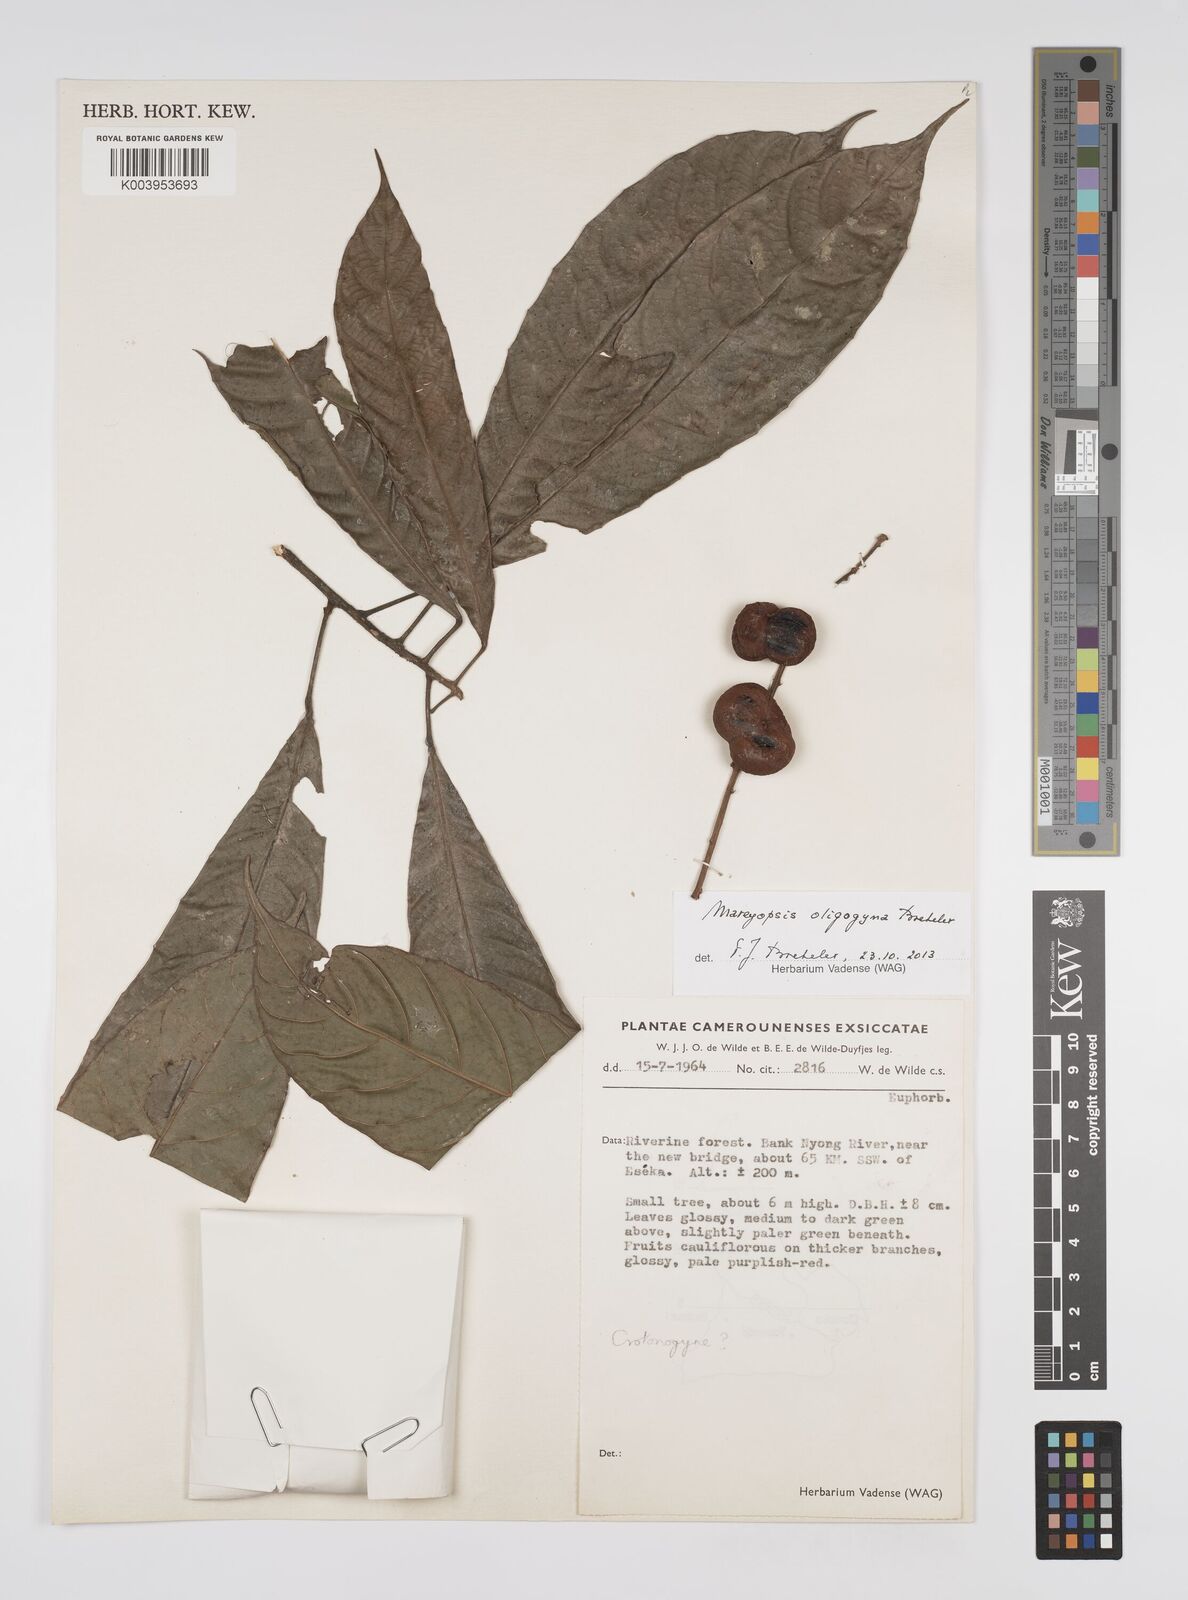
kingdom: Plantae
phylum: Tracheophyta
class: Magnoliopsida
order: Malpighiales
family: Euphorbiaceae
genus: Mareyopsis
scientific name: Mareyopsis oligogyna
